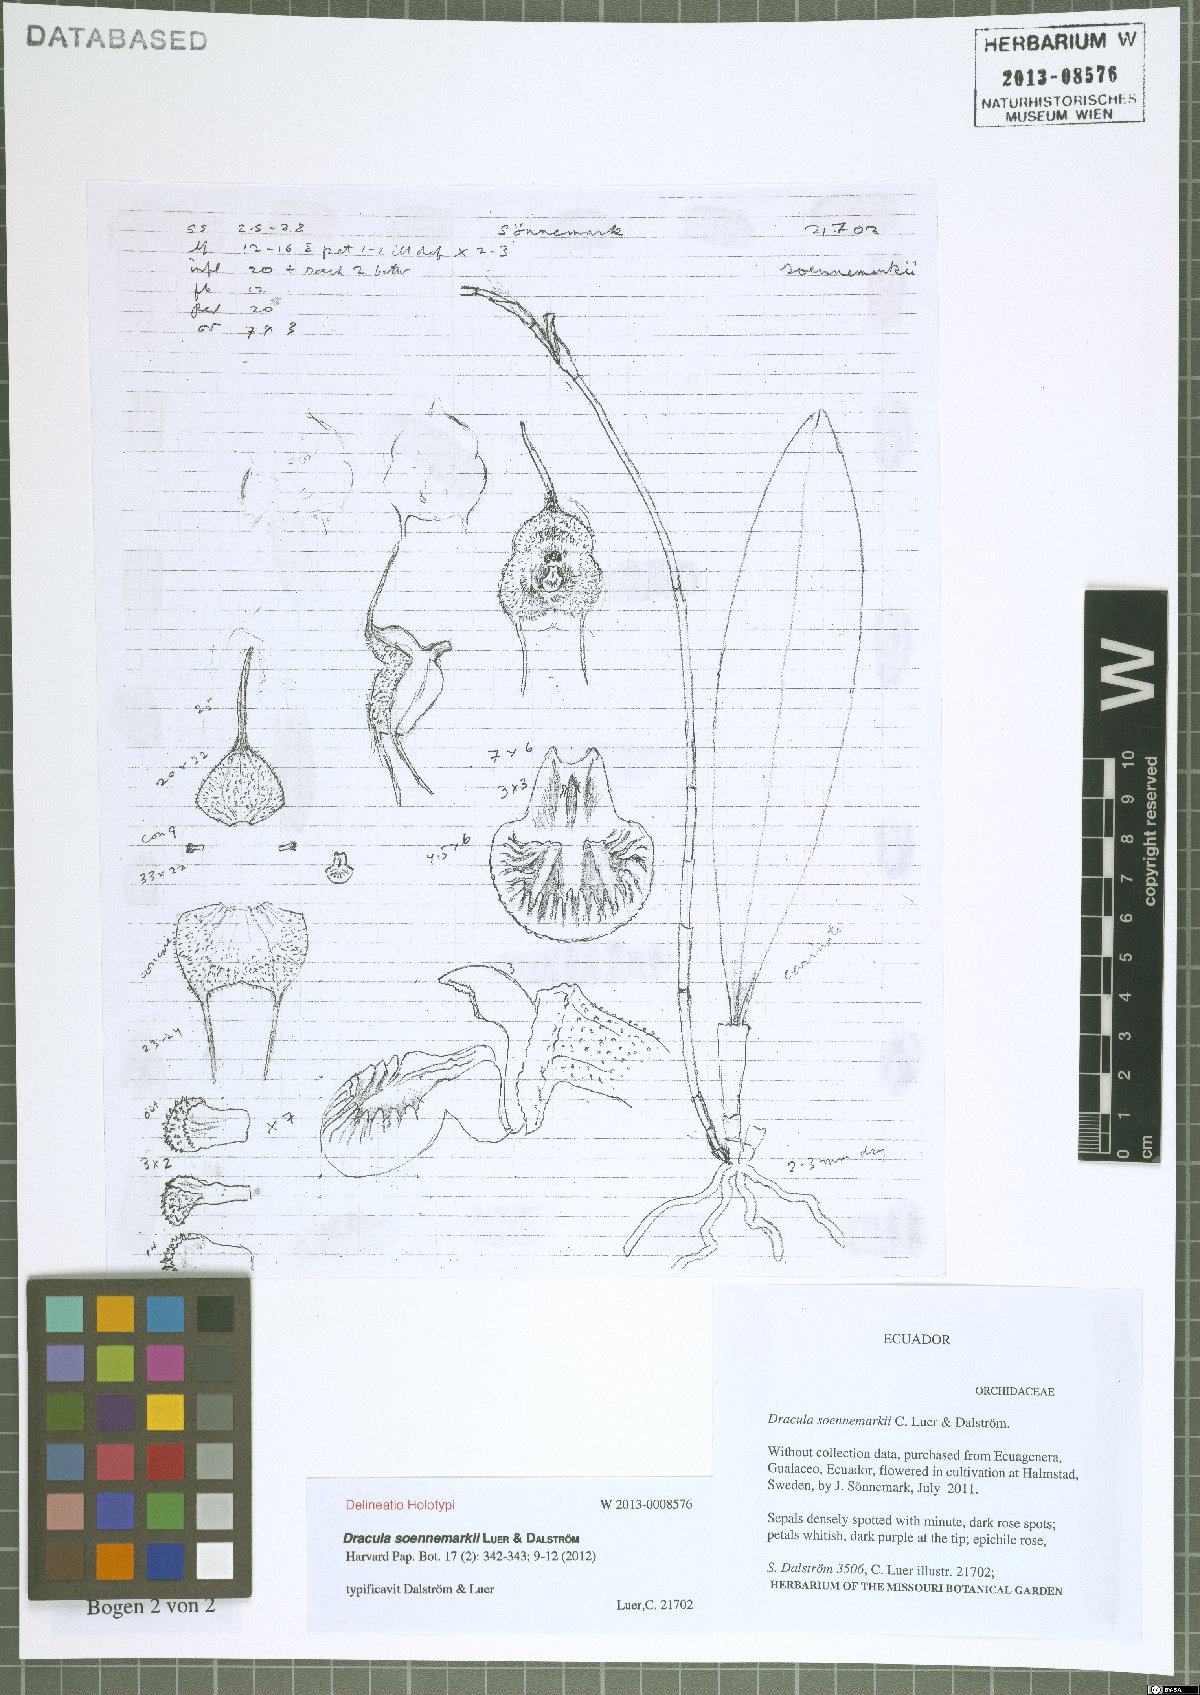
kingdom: Plantae
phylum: Tracheophyta
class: Liliopsida
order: Asparagales
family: Orchidaceae
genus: Dracula
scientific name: Dracula soennemarkii
